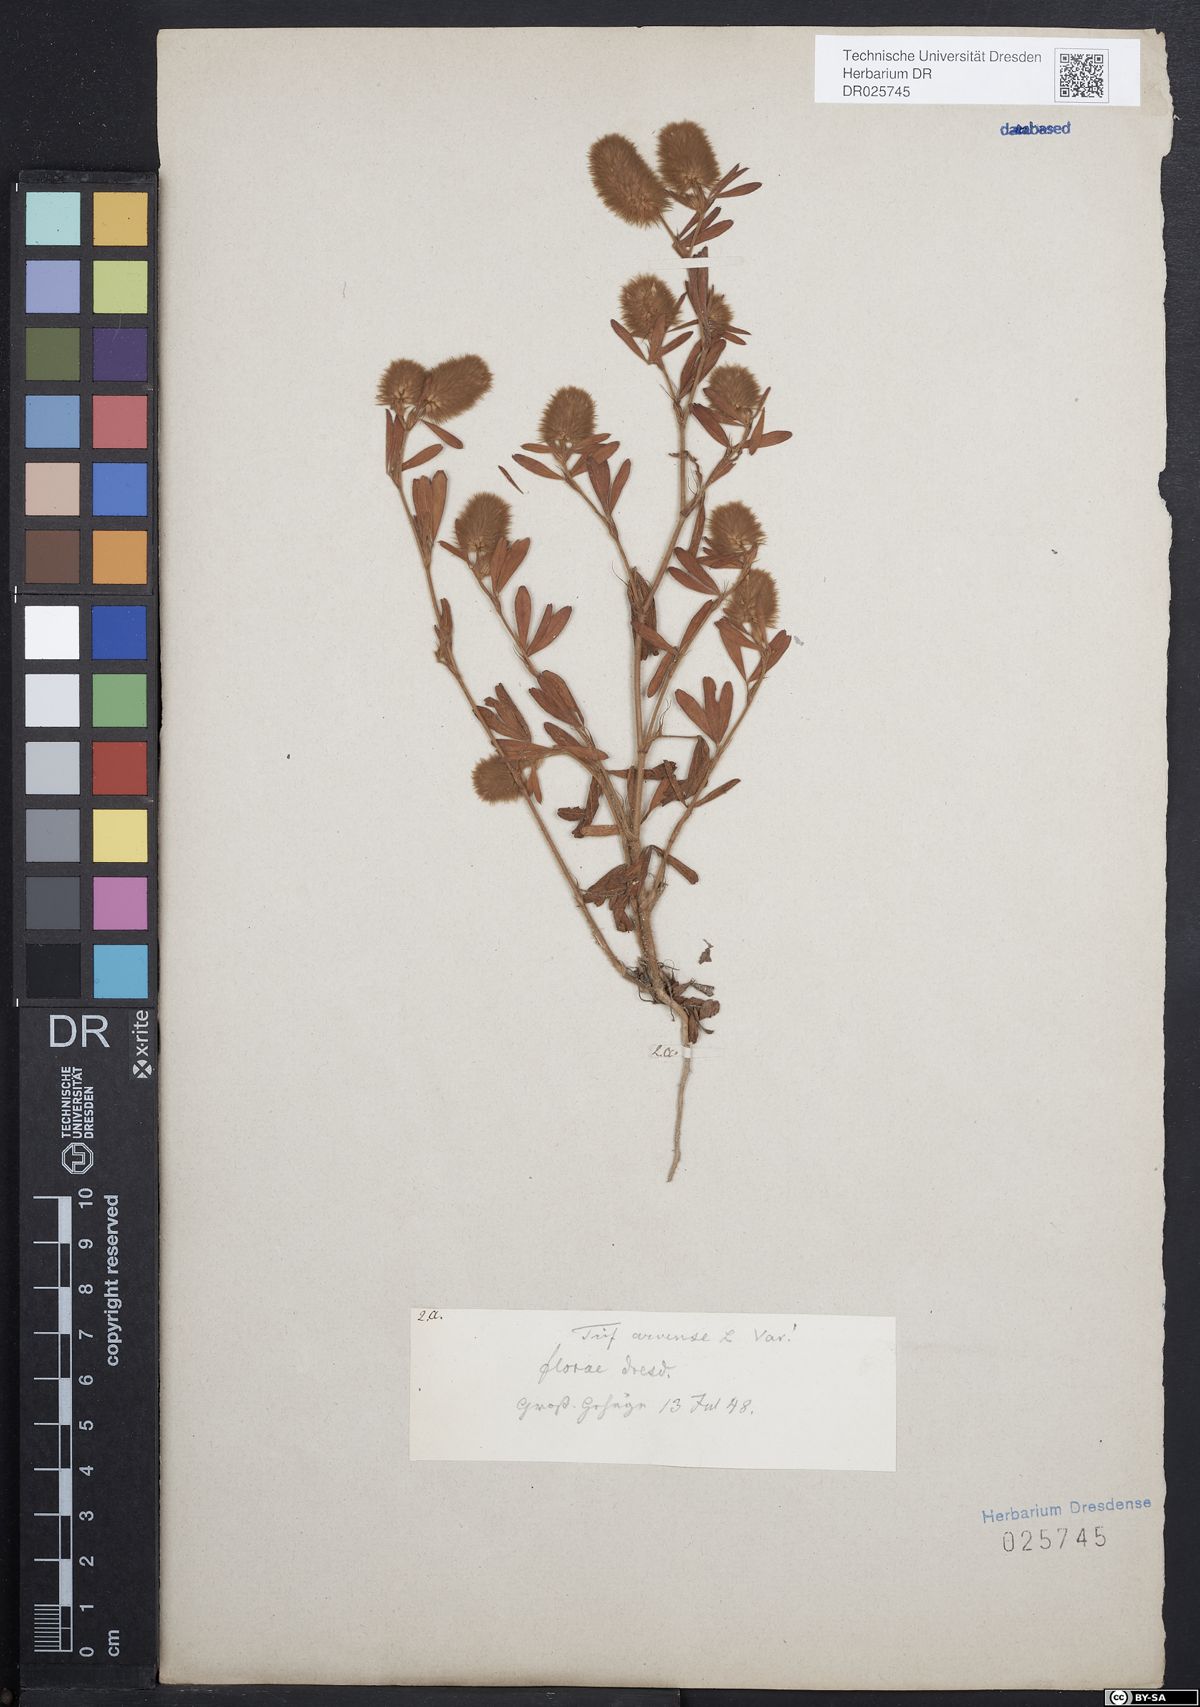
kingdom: Plantae
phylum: Tracheophyta
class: Magnoliopsida
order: Fabales
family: Fabaceae
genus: Trifolium
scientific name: Trifolium arvense
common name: Hare's-foot clover
